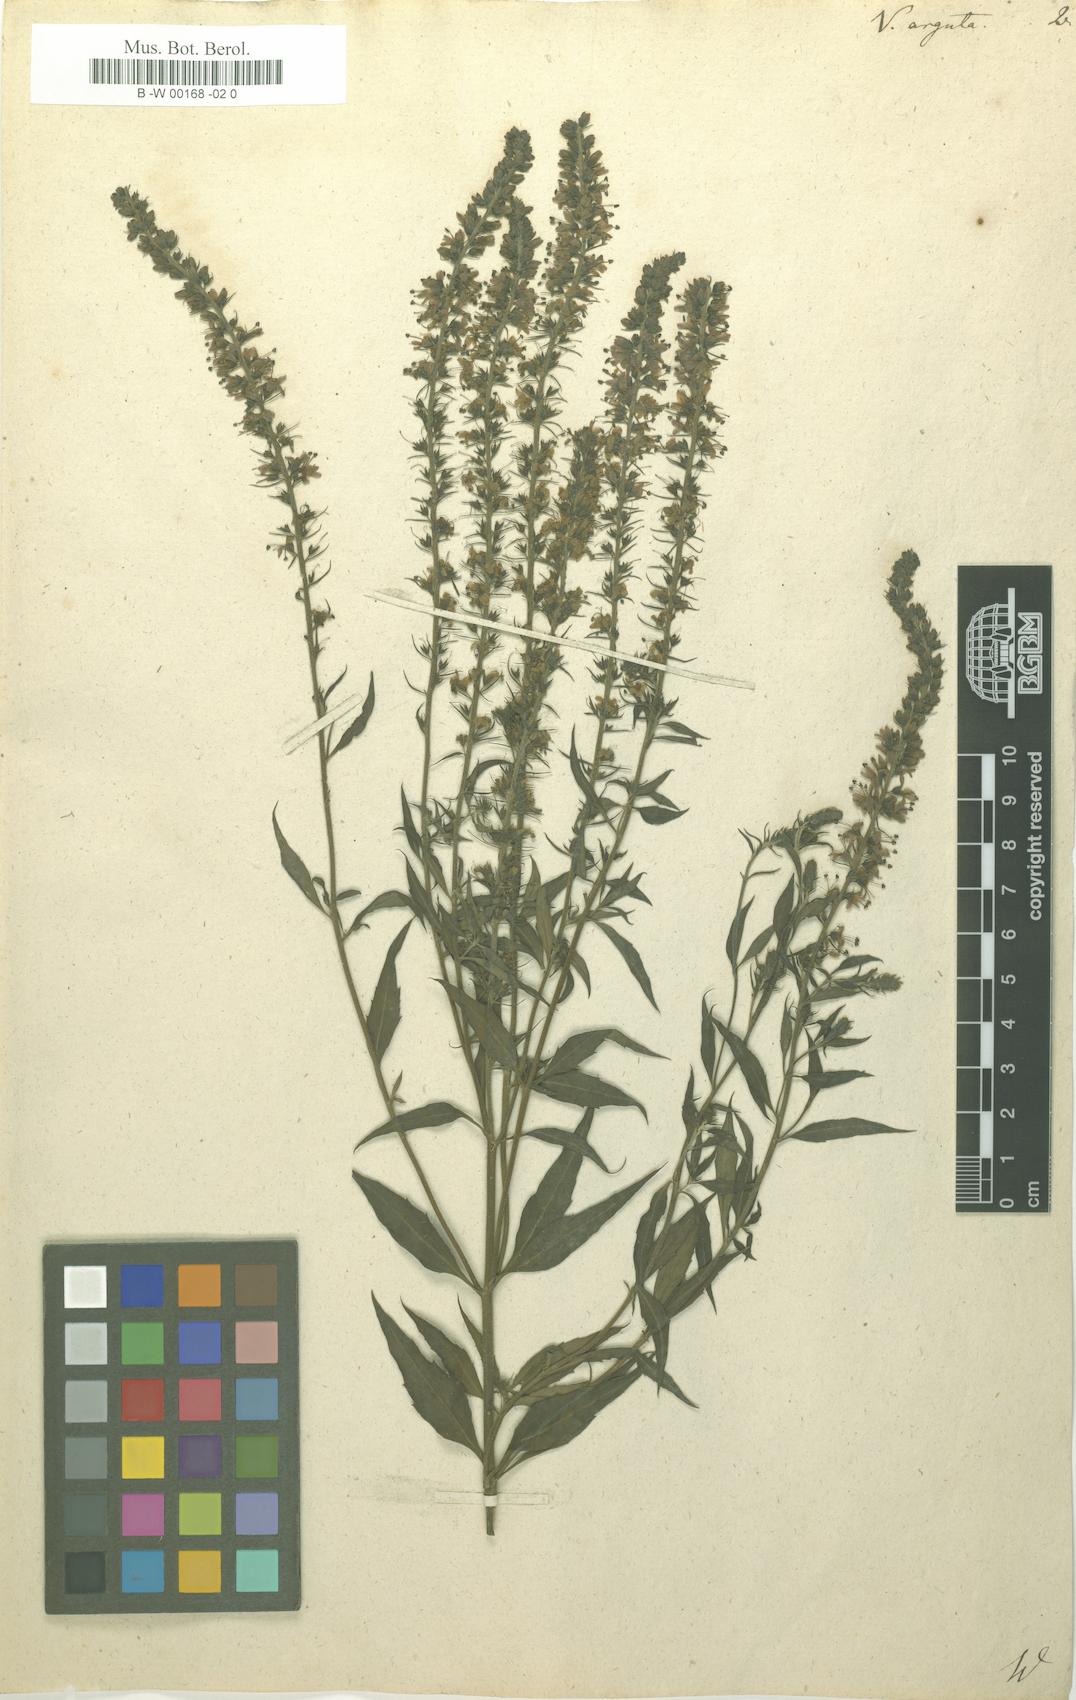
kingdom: Plantae
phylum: Tracheophyta
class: Magnoliopsida
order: Lamiales
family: Plantaginaceae
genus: Veronica
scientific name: Veronica
